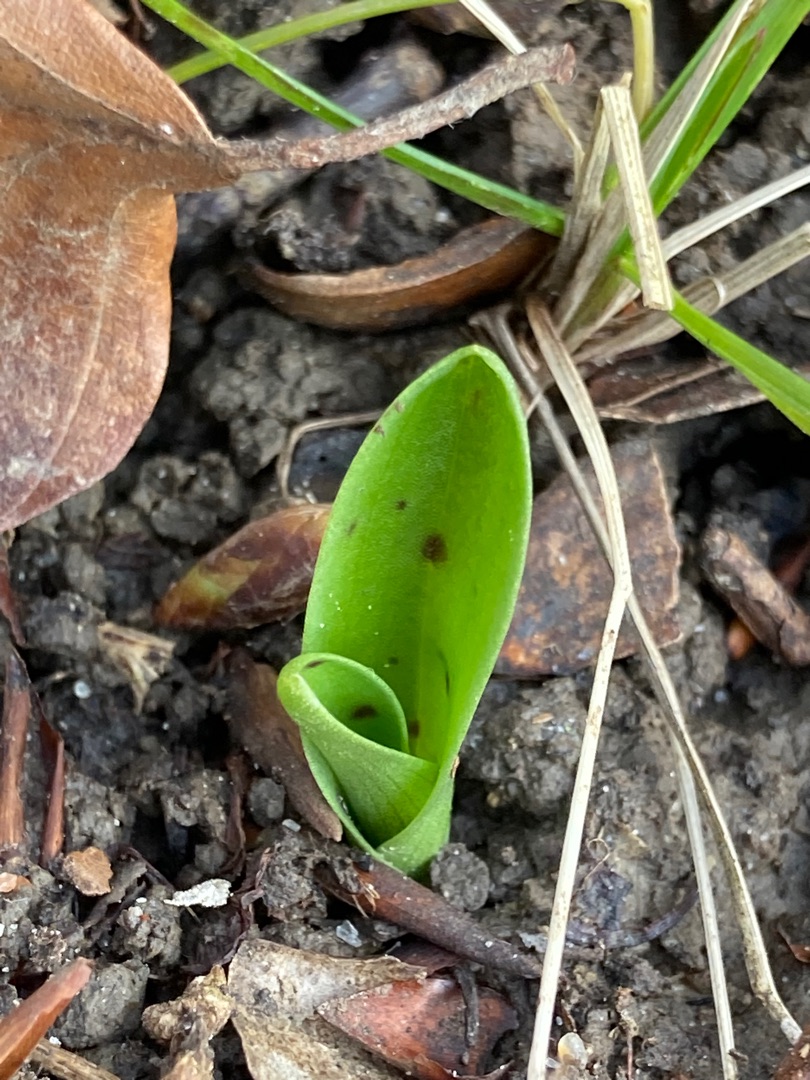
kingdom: Plantae
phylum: Tracheophyta
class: Liliopsida
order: Asparagales
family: Orchidaceae
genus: Orchis
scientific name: Orchis mascula
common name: Tyndakset gøgeurt
